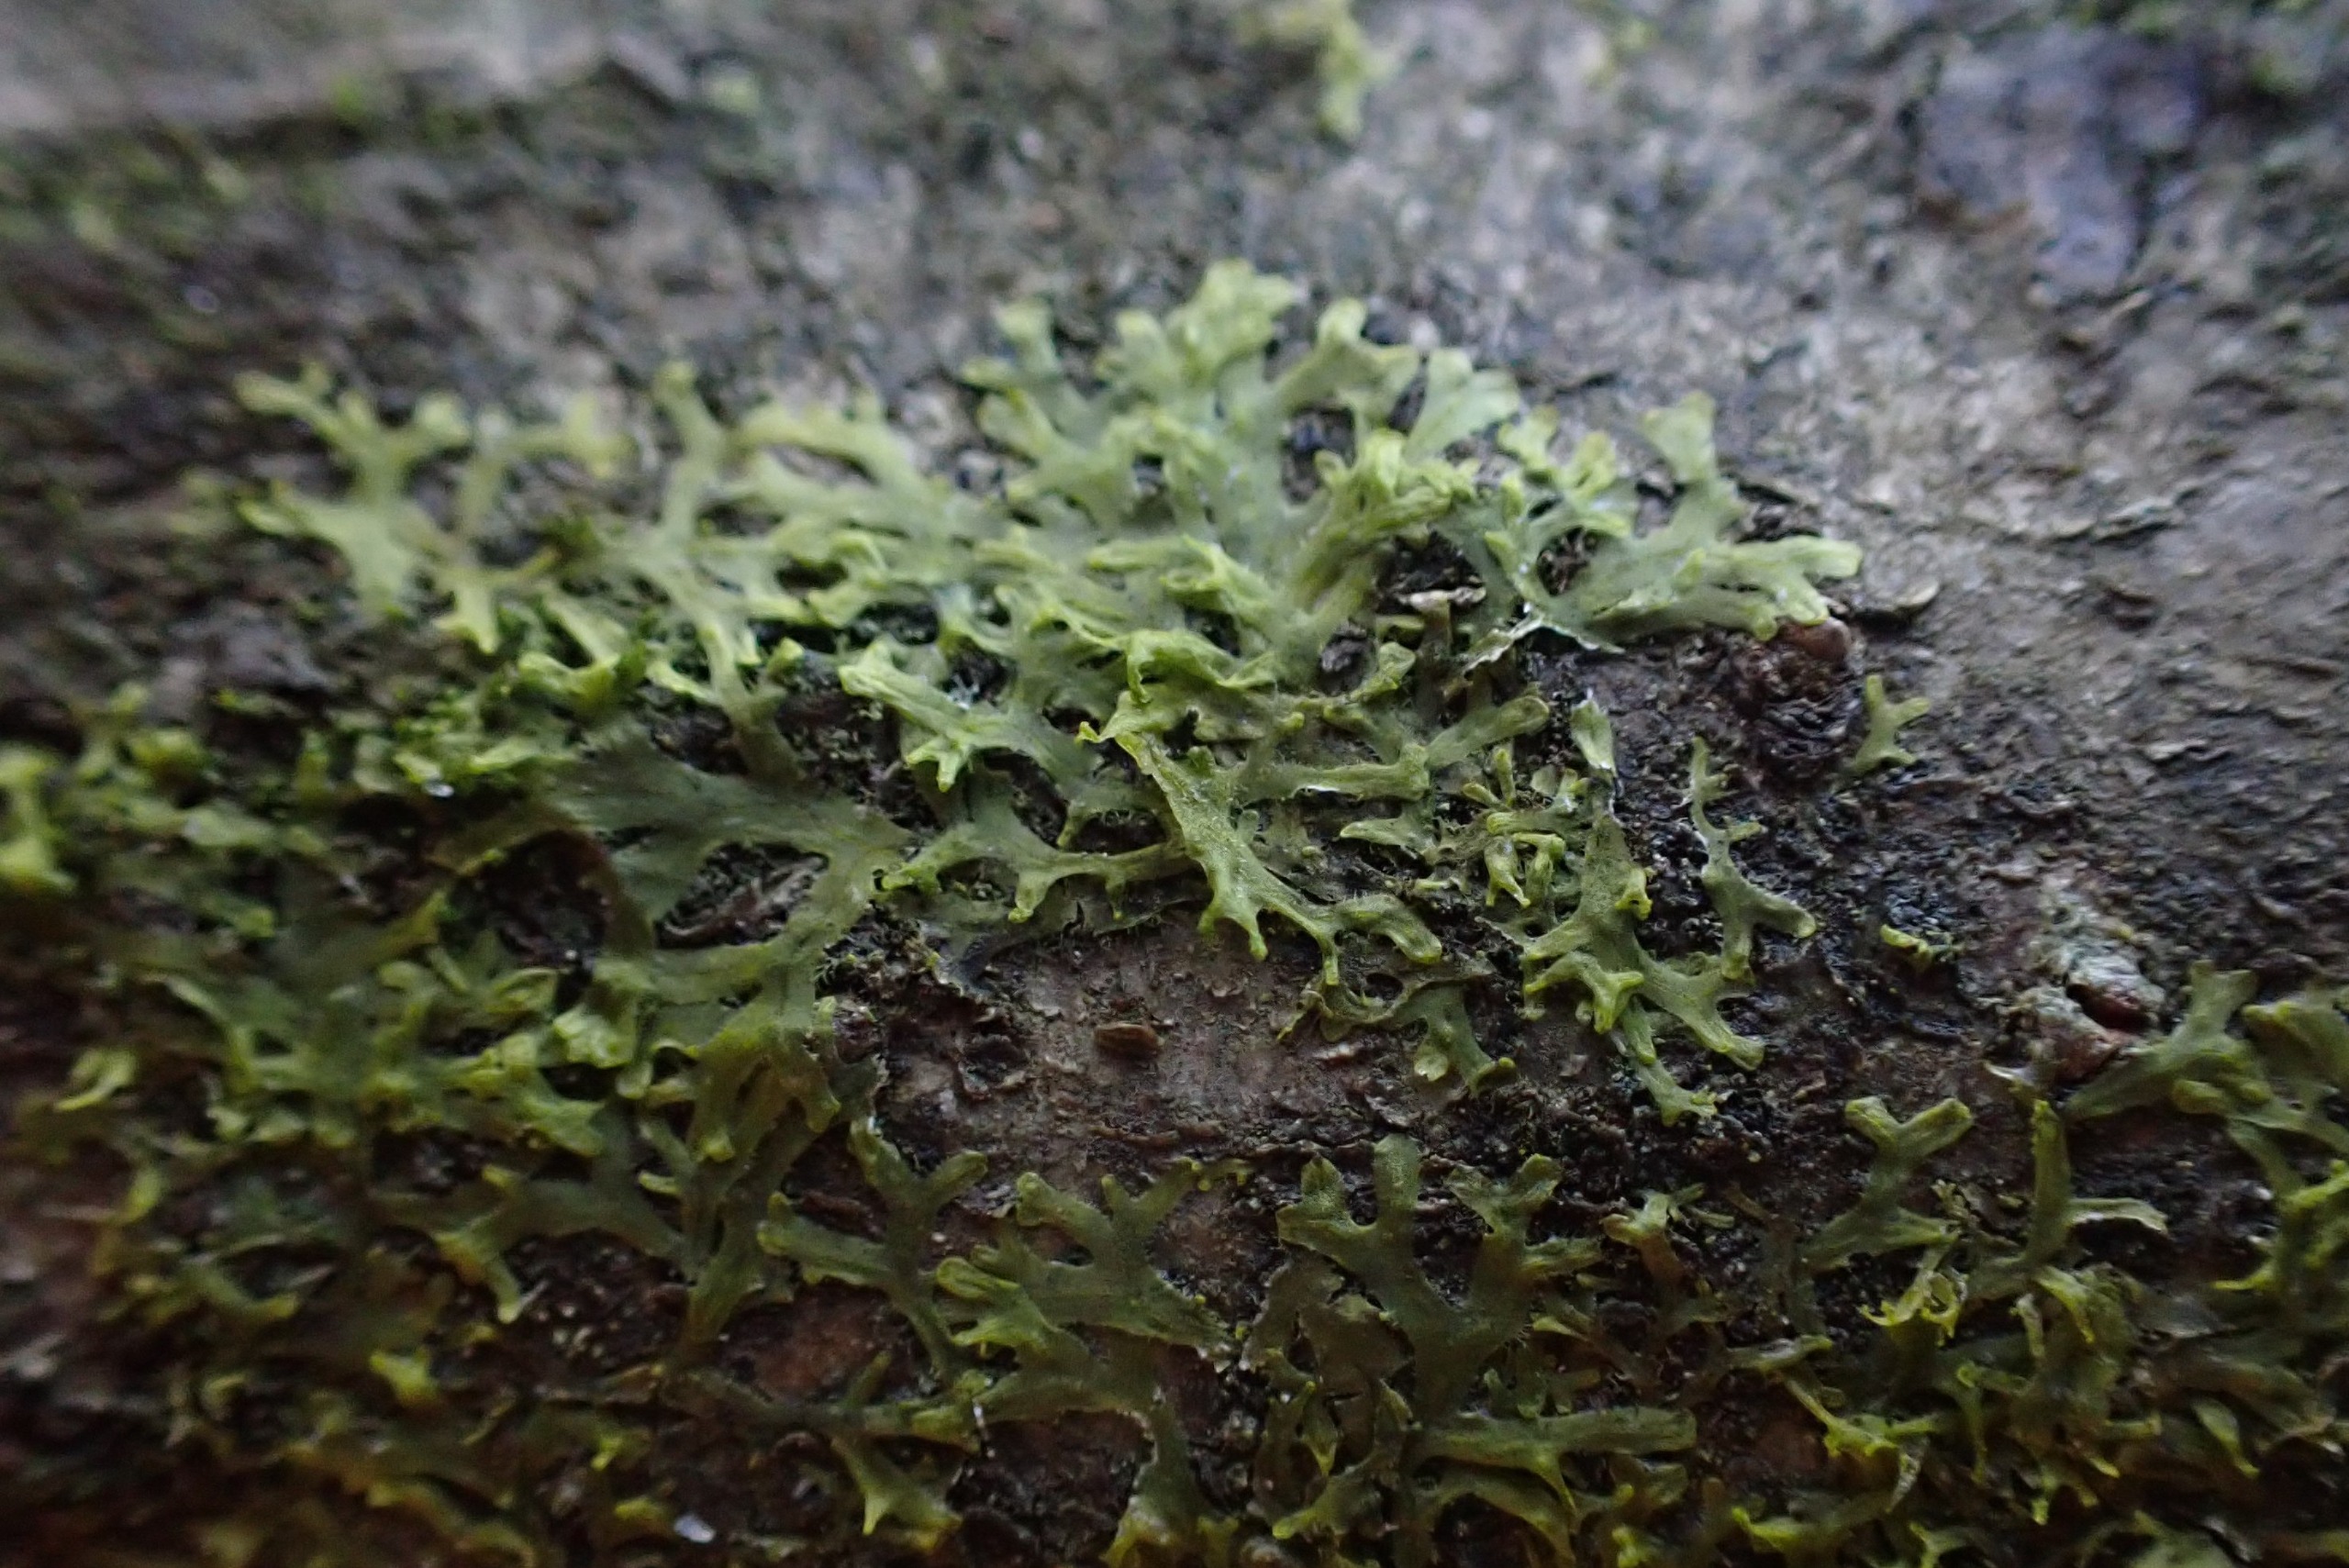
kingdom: Plantae
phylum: Marchantiophyta
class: Jungermanniopsida
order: Metzgeriales
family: Aneuraceae
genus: Riccardia
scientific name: Riccardia palmata
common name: Blågrøn gaffelløv
